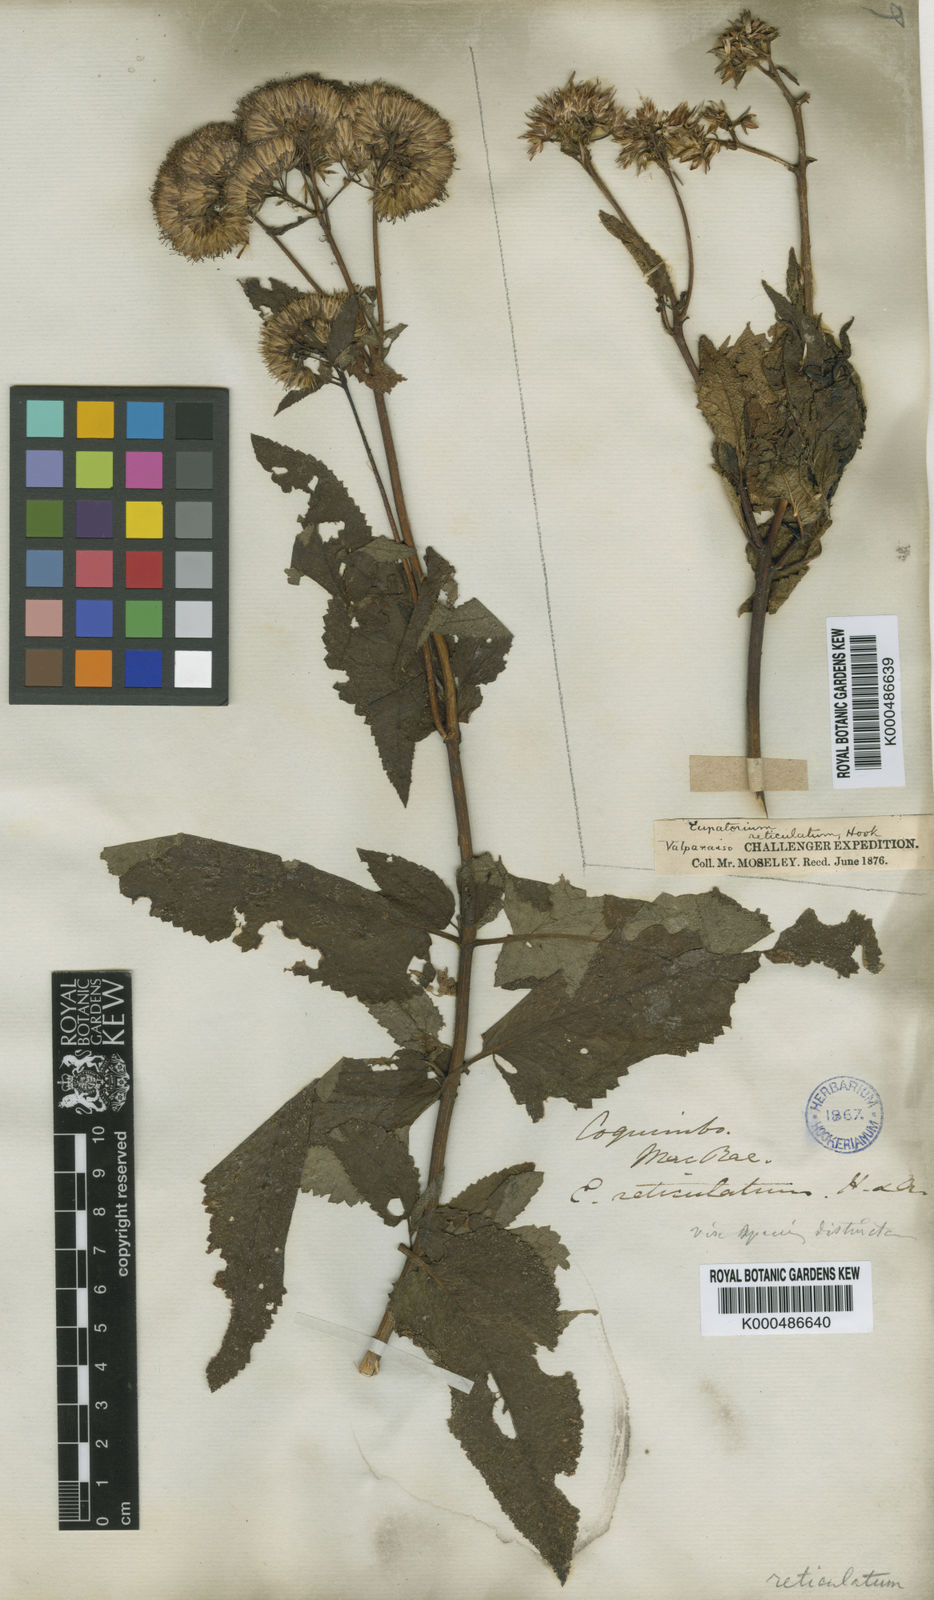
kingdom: Plantae
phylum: Tracheophyta
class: Magnoliopsida
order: Asterales
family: Asteraceae
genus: Aristeguietia
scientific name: Aristeguietia salvia
